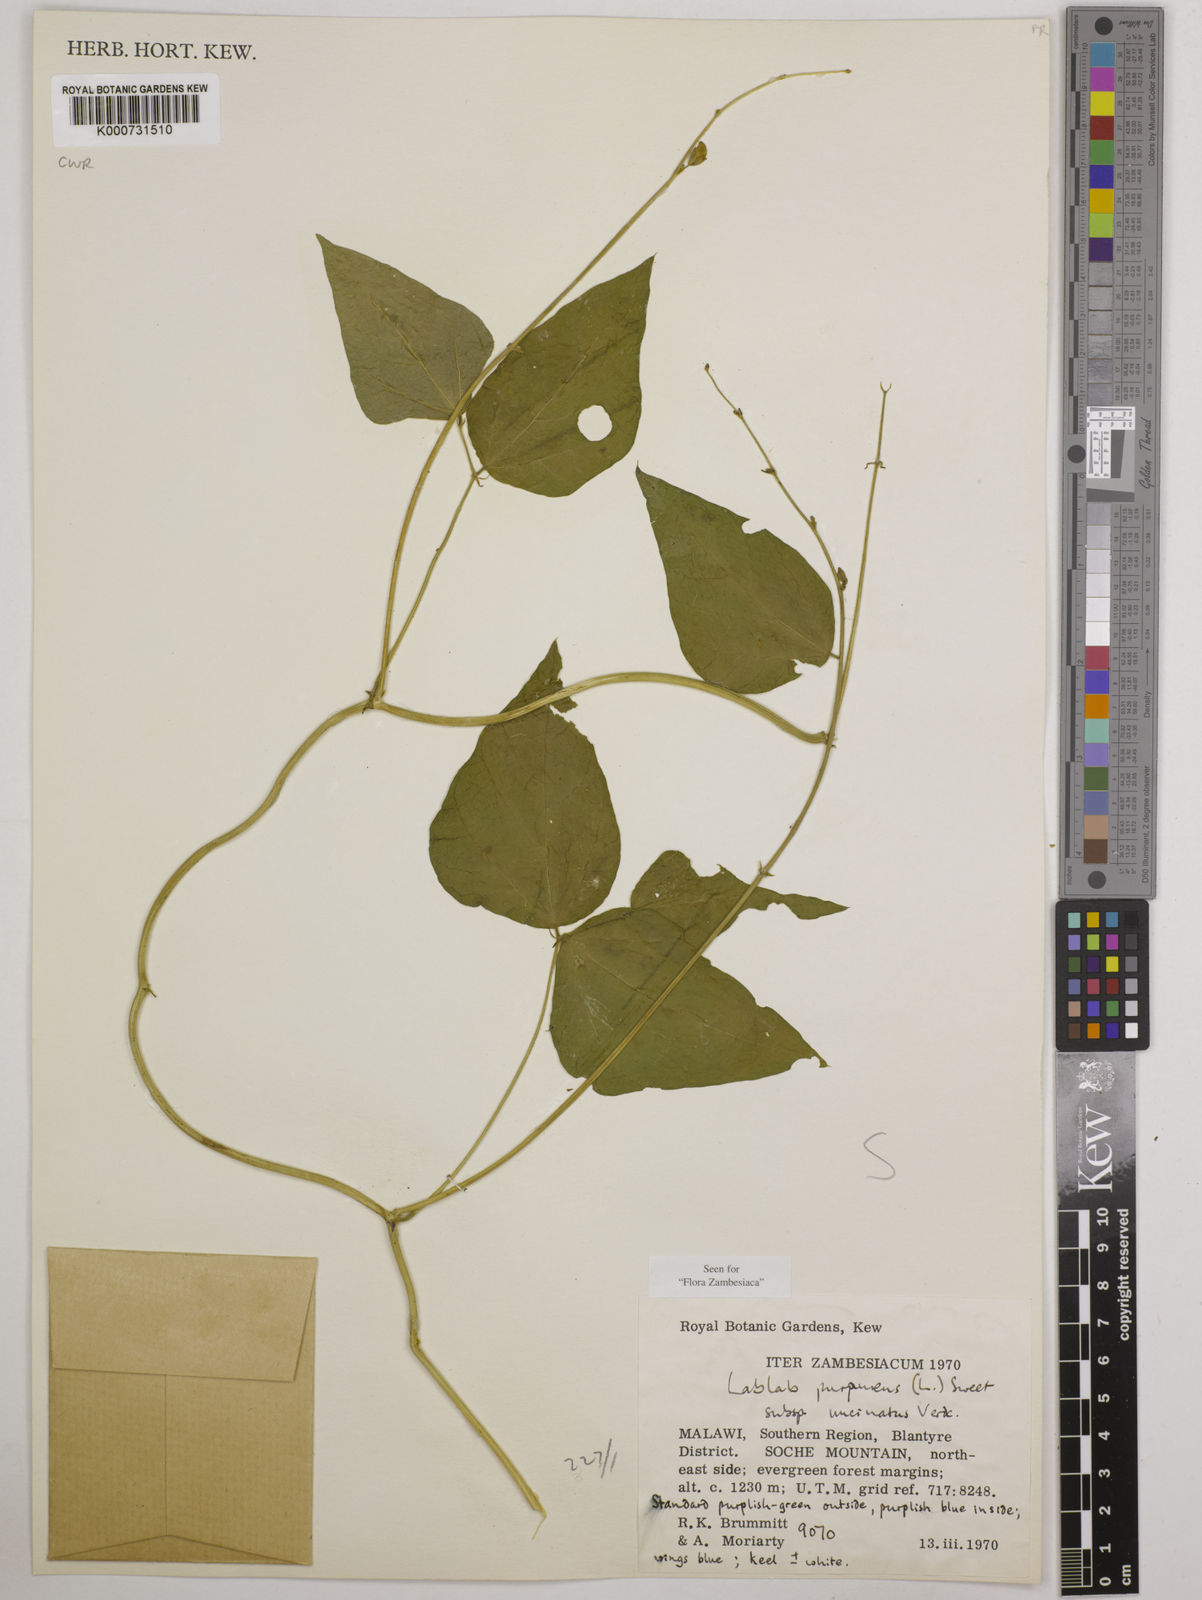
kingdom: Plantae
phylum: Tracheophyta
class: Magnoliopsida
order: Fabales
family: Fabaceae
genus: Lablab
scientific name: Lablab purpureus
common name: Lablab-bean
